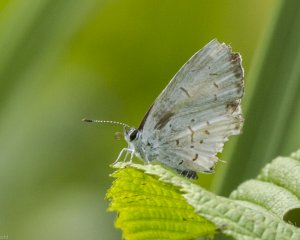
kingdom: Animalia
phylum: Arthropoda
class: Insecta
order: Lepidoptera
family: Lycaenidae
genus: Cyaniris
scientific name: Cyaniris neglecta
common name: Summer Azure
